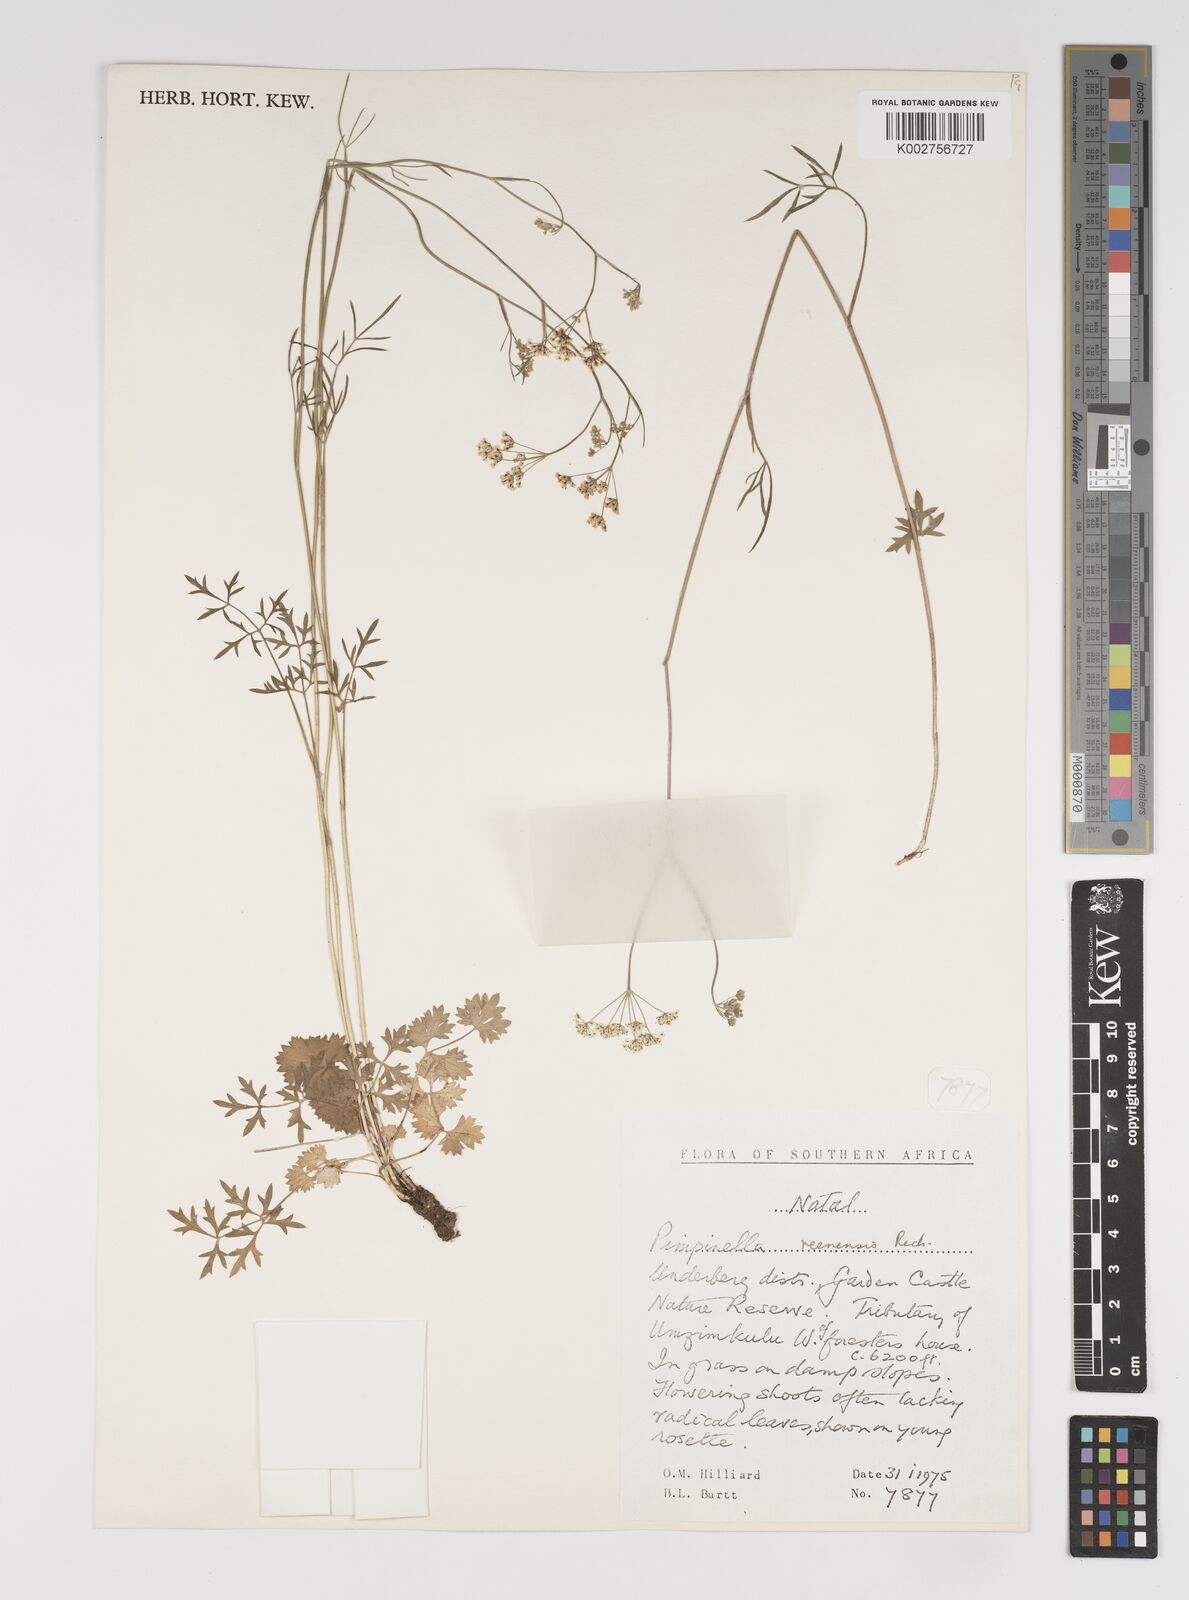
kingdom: Plantae
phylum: Tracheophyta
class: Magnoliopsida
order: Apiales
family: Apiaceae
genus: Pimpinella
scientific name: Pimpinella caffra
